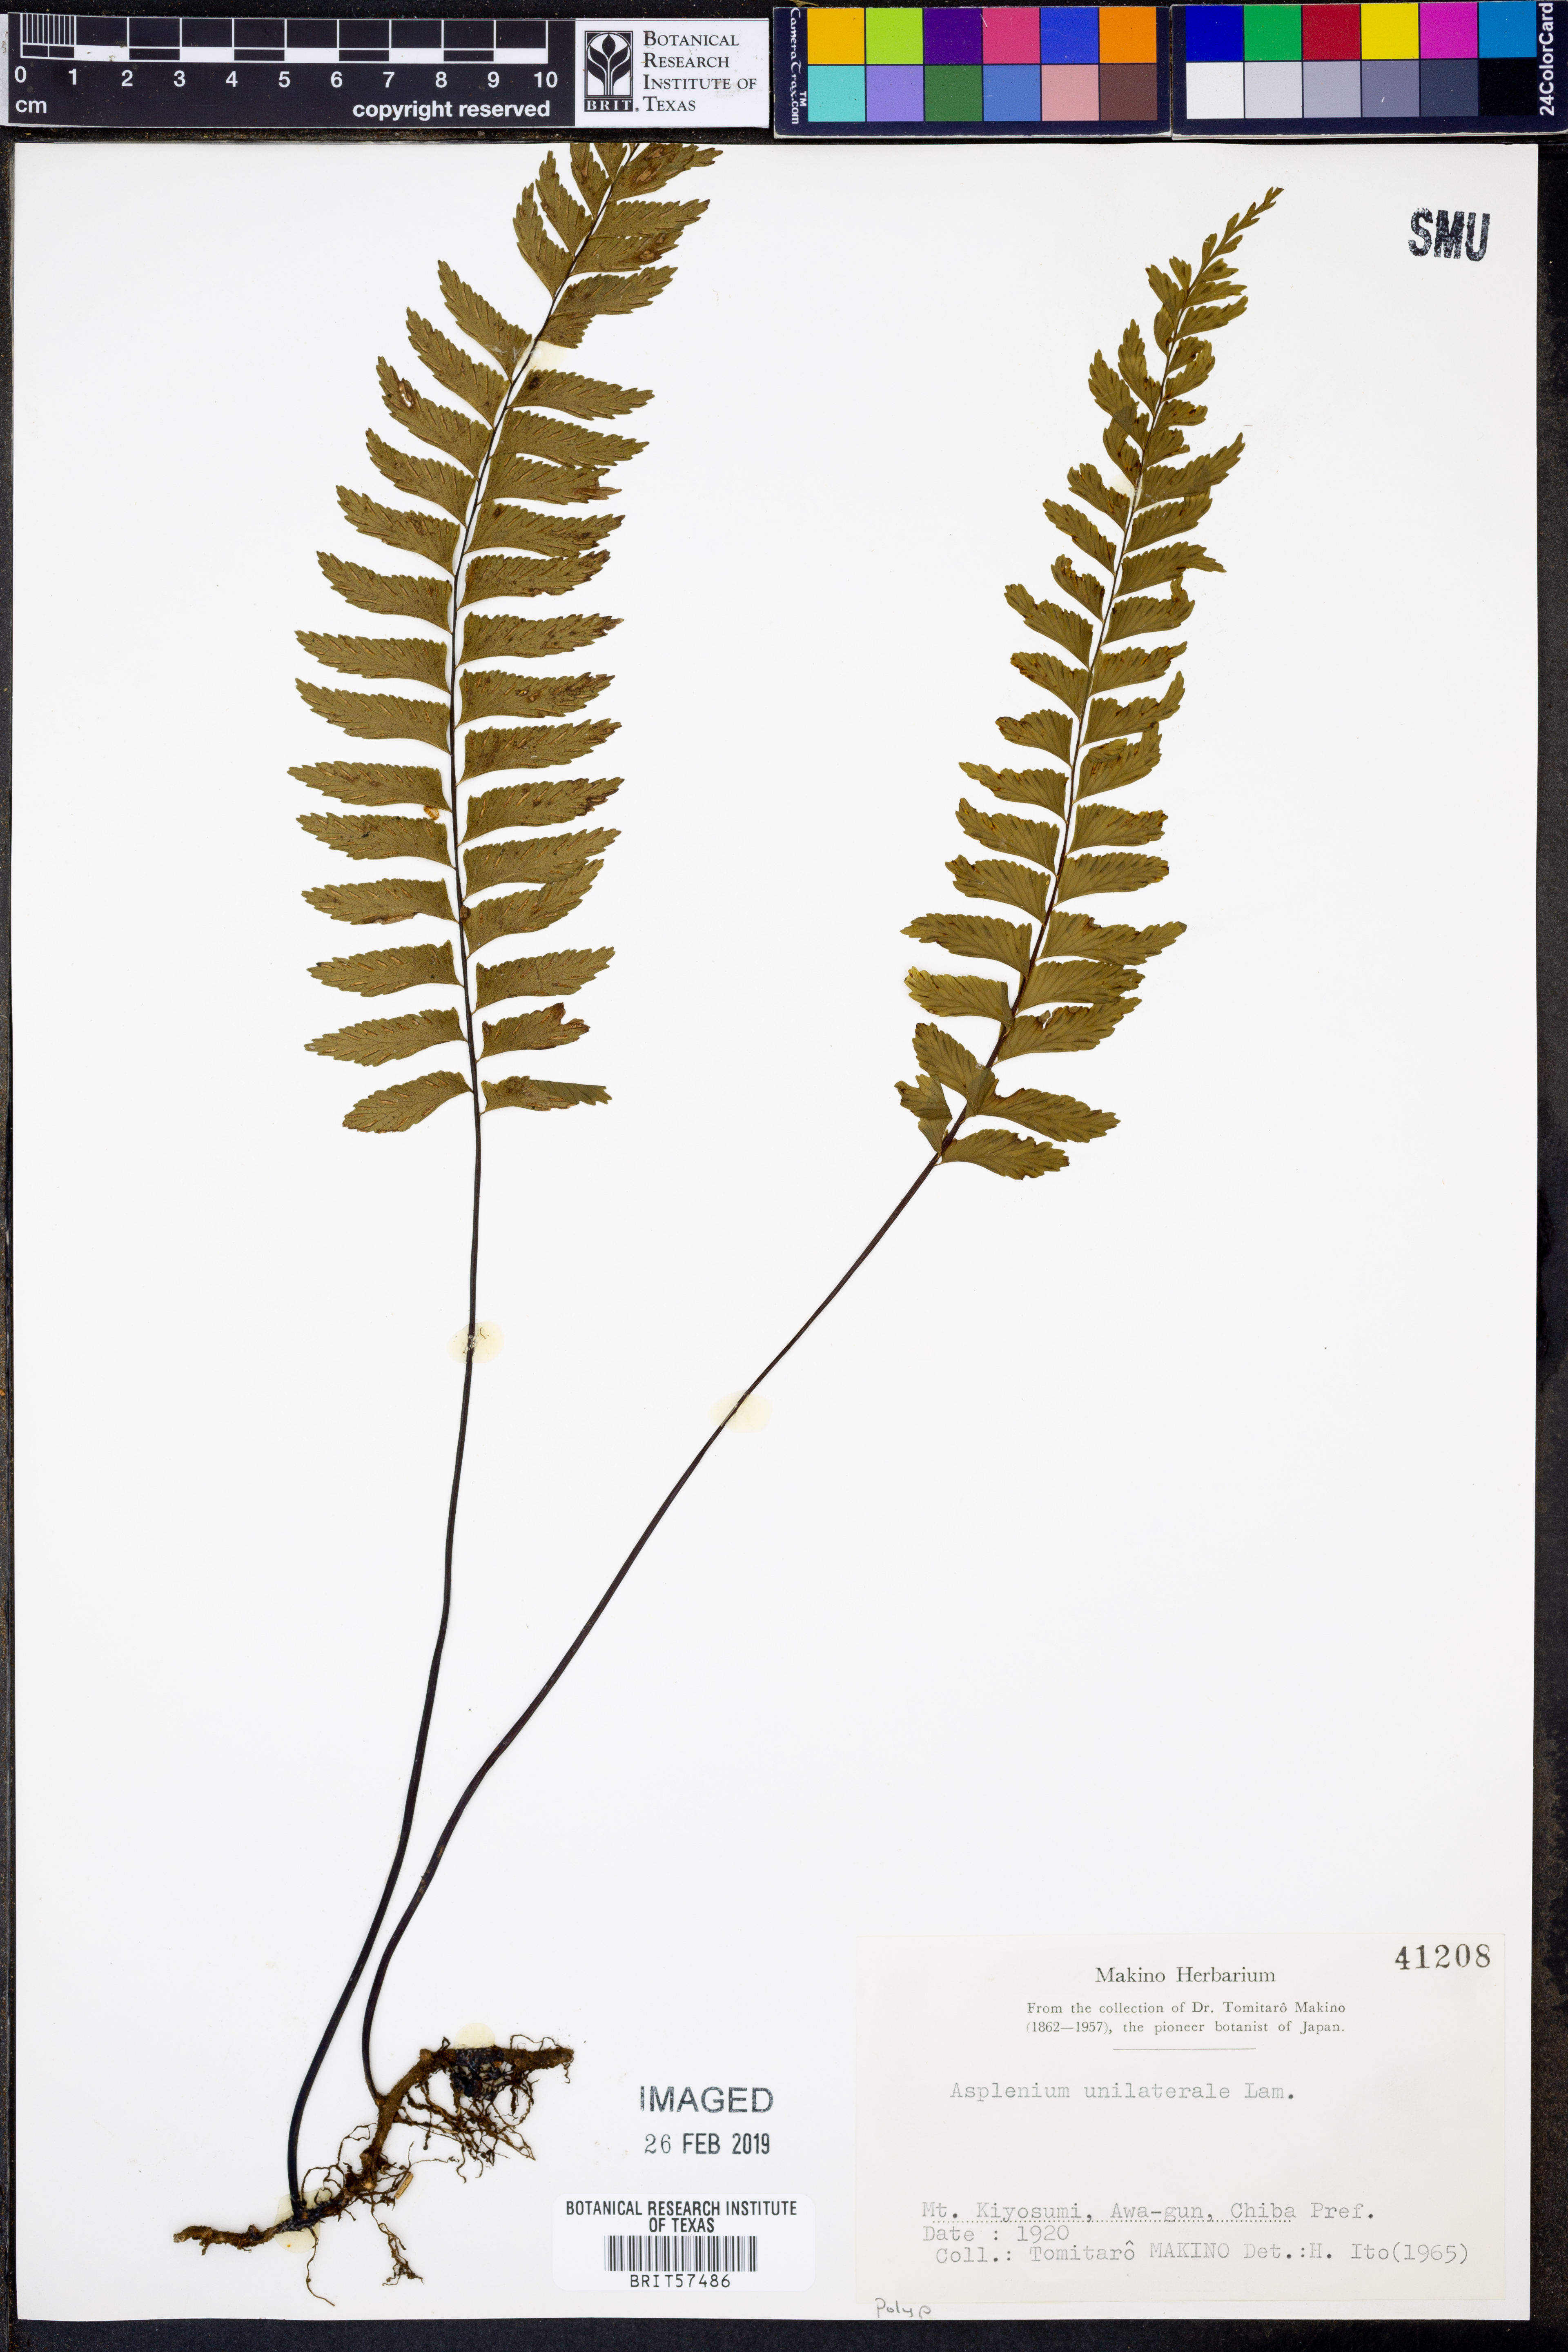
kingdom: Plantae
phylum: Tracheophyta
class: Polypodiopsida
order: Polypodiales
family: Aspleniaceae
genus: Hymenasplenium
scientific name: Hymenasplenium unilaterale
